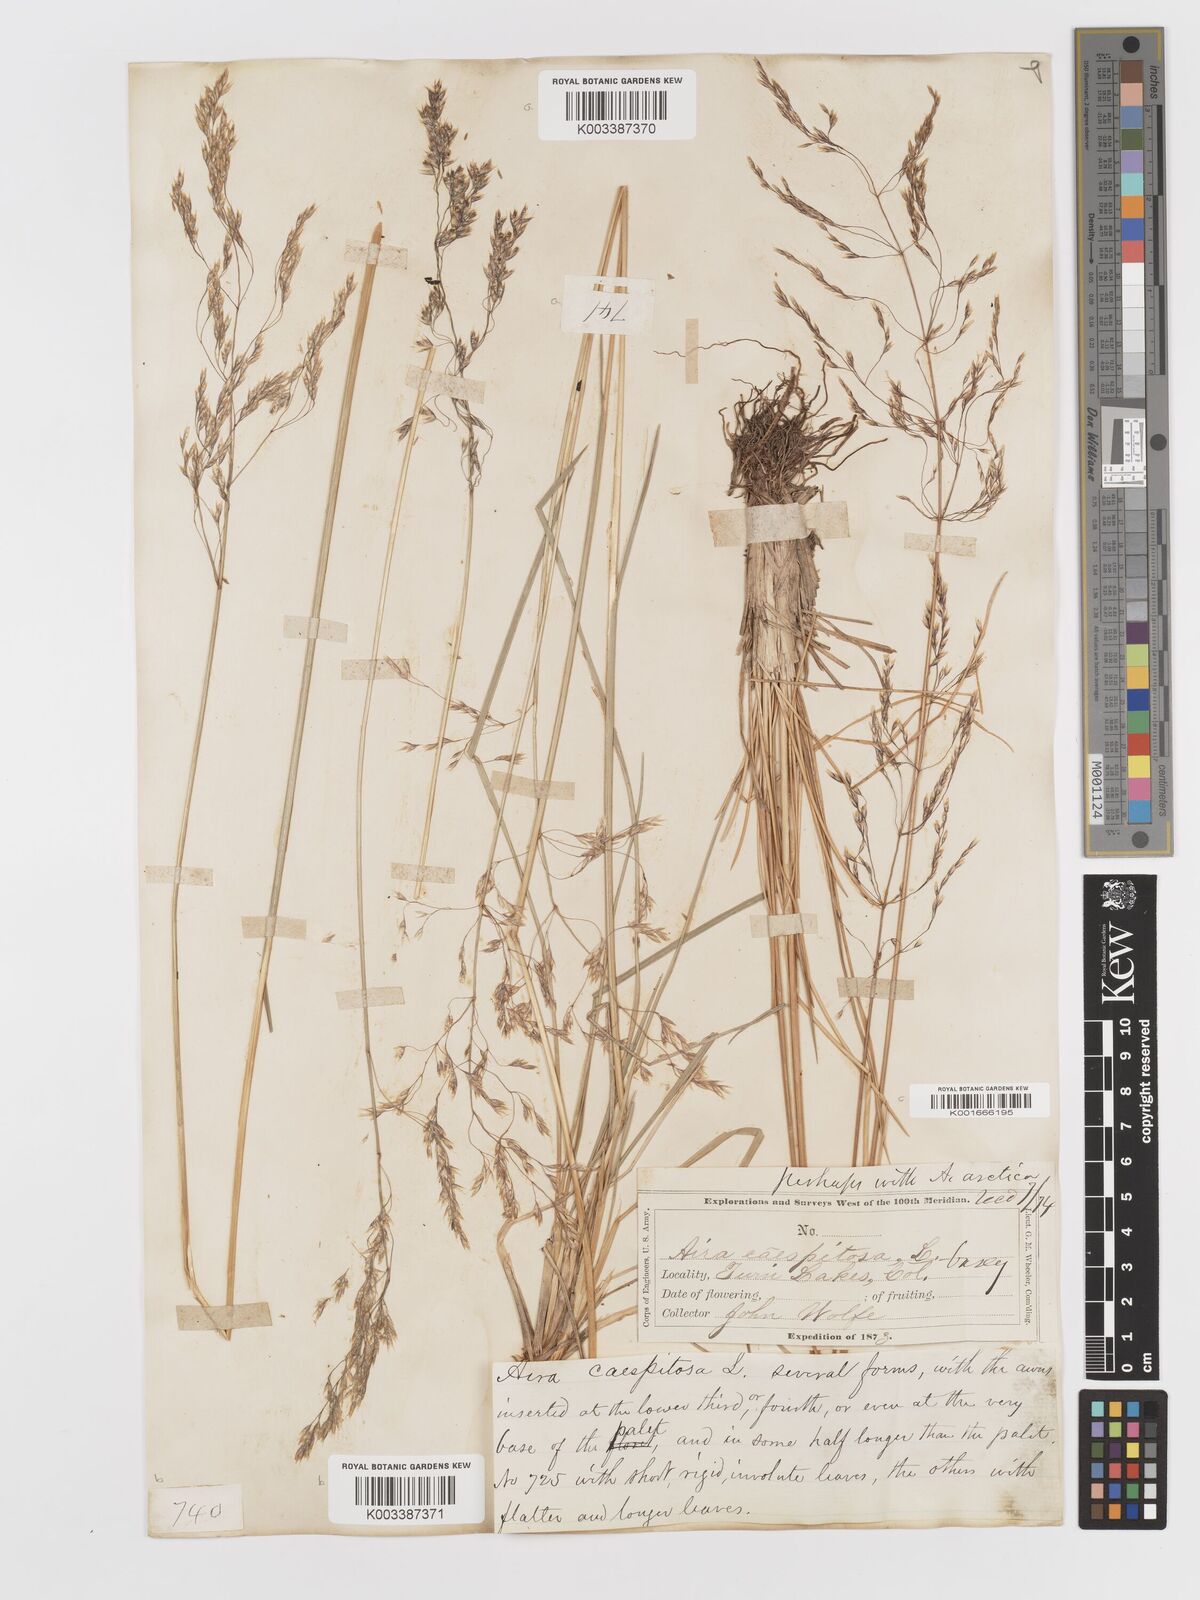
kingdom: Plantae
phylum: Tracheophyta
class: Liliopsida
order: Poales
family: Poaceae
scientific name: Poaceae
